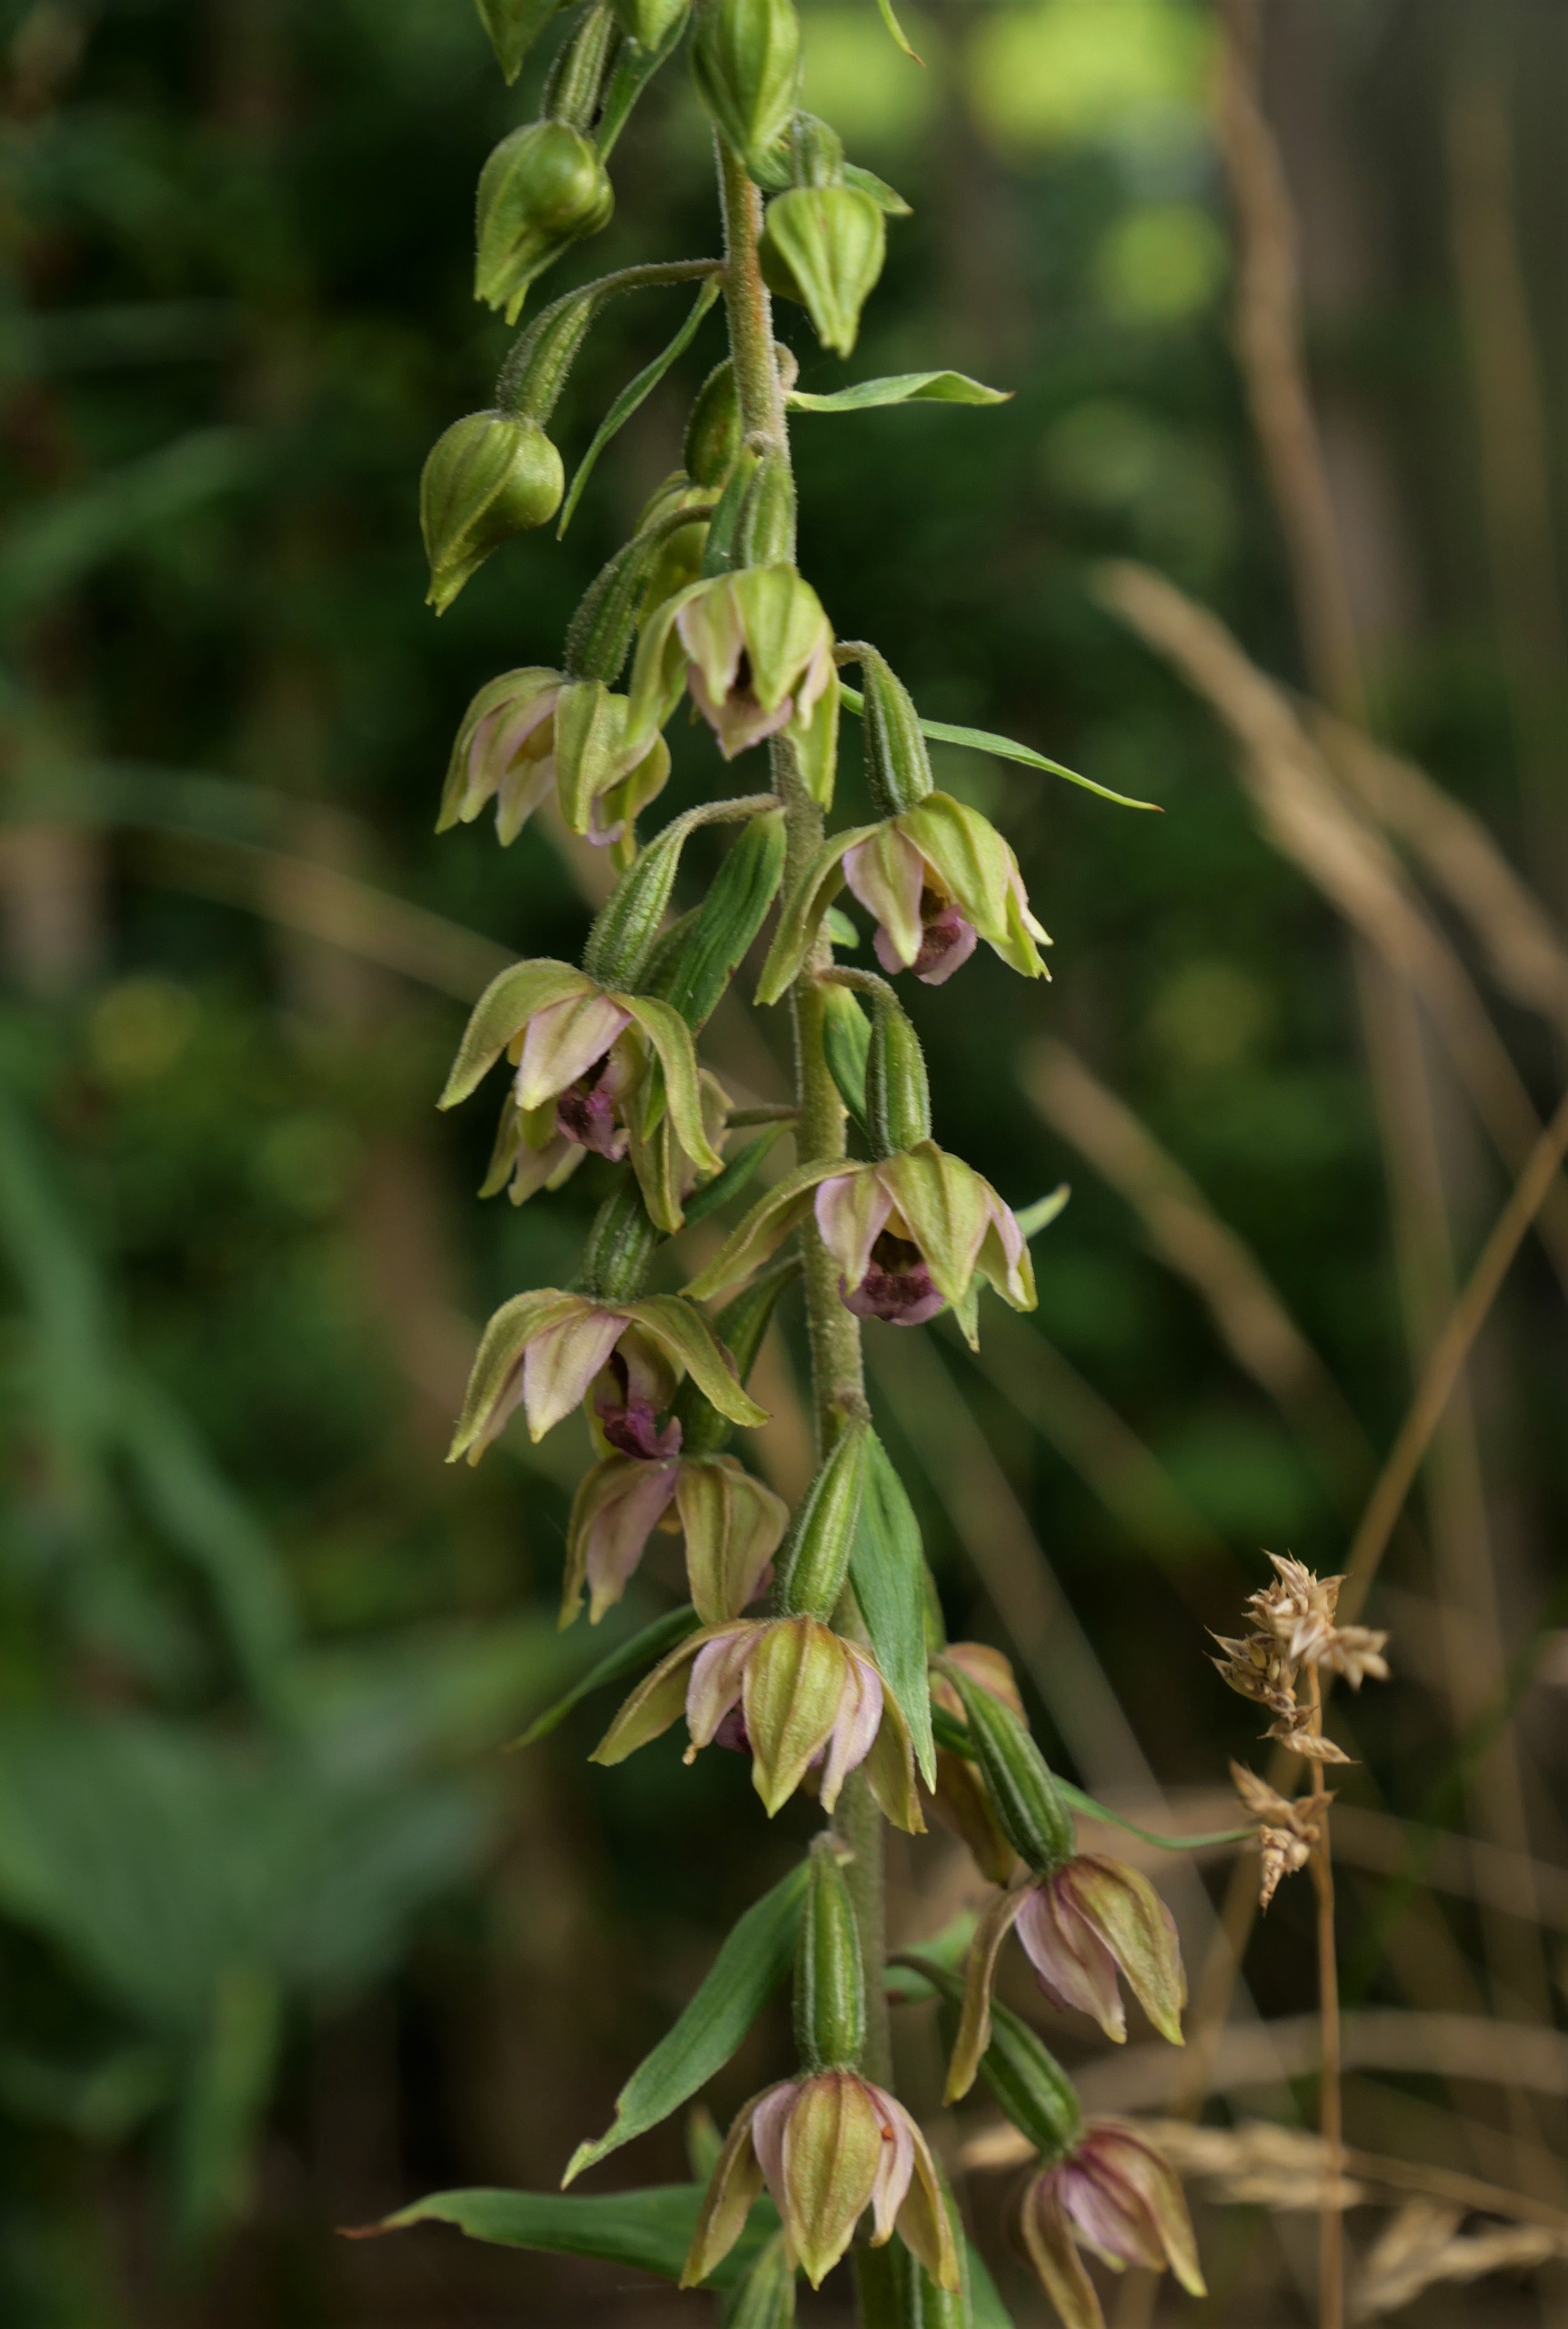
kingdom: Plantae
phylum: Tracheophyta
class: Liliopsida
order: Asparagales
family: Orchidaceae
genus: Epipactis
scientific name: Epipactis helleborine
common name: Skov-hullæbe
